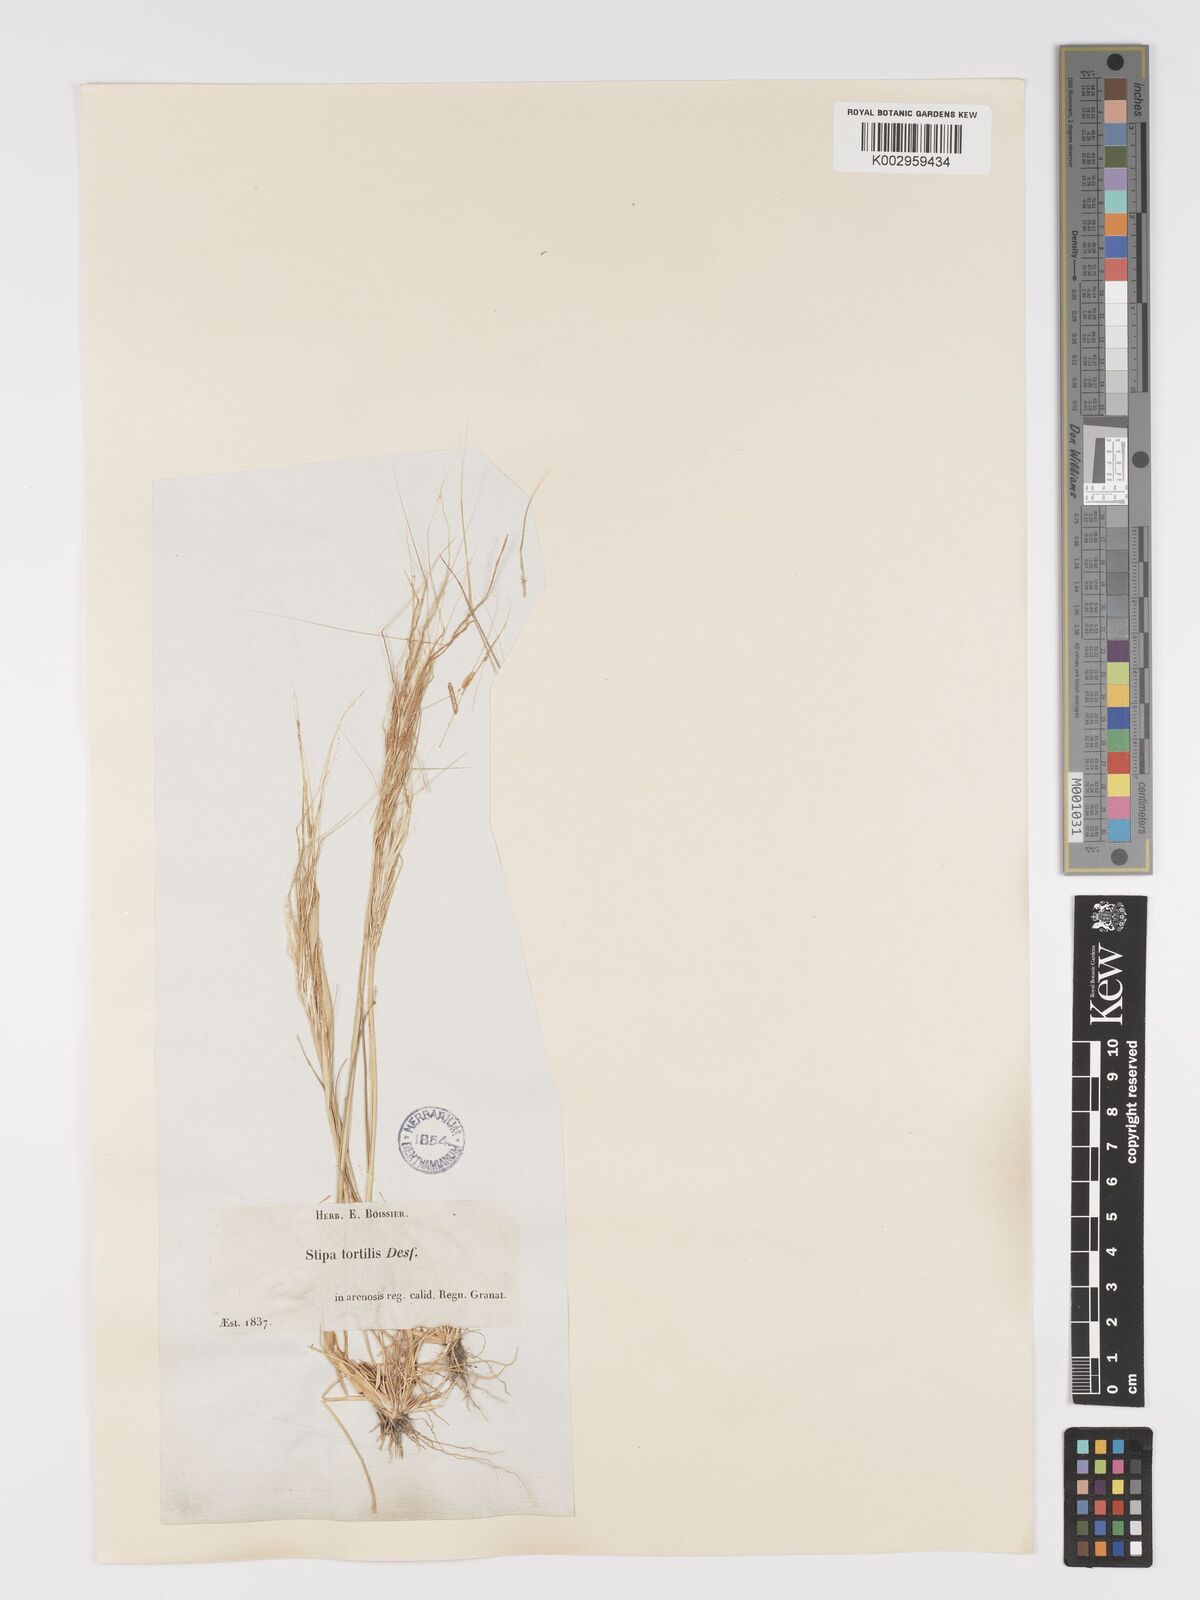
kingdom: Plantae
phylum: Tracheophyta
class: Liliopsida
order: Poales
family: Poaceae
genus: Stipa
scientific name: Stipa
